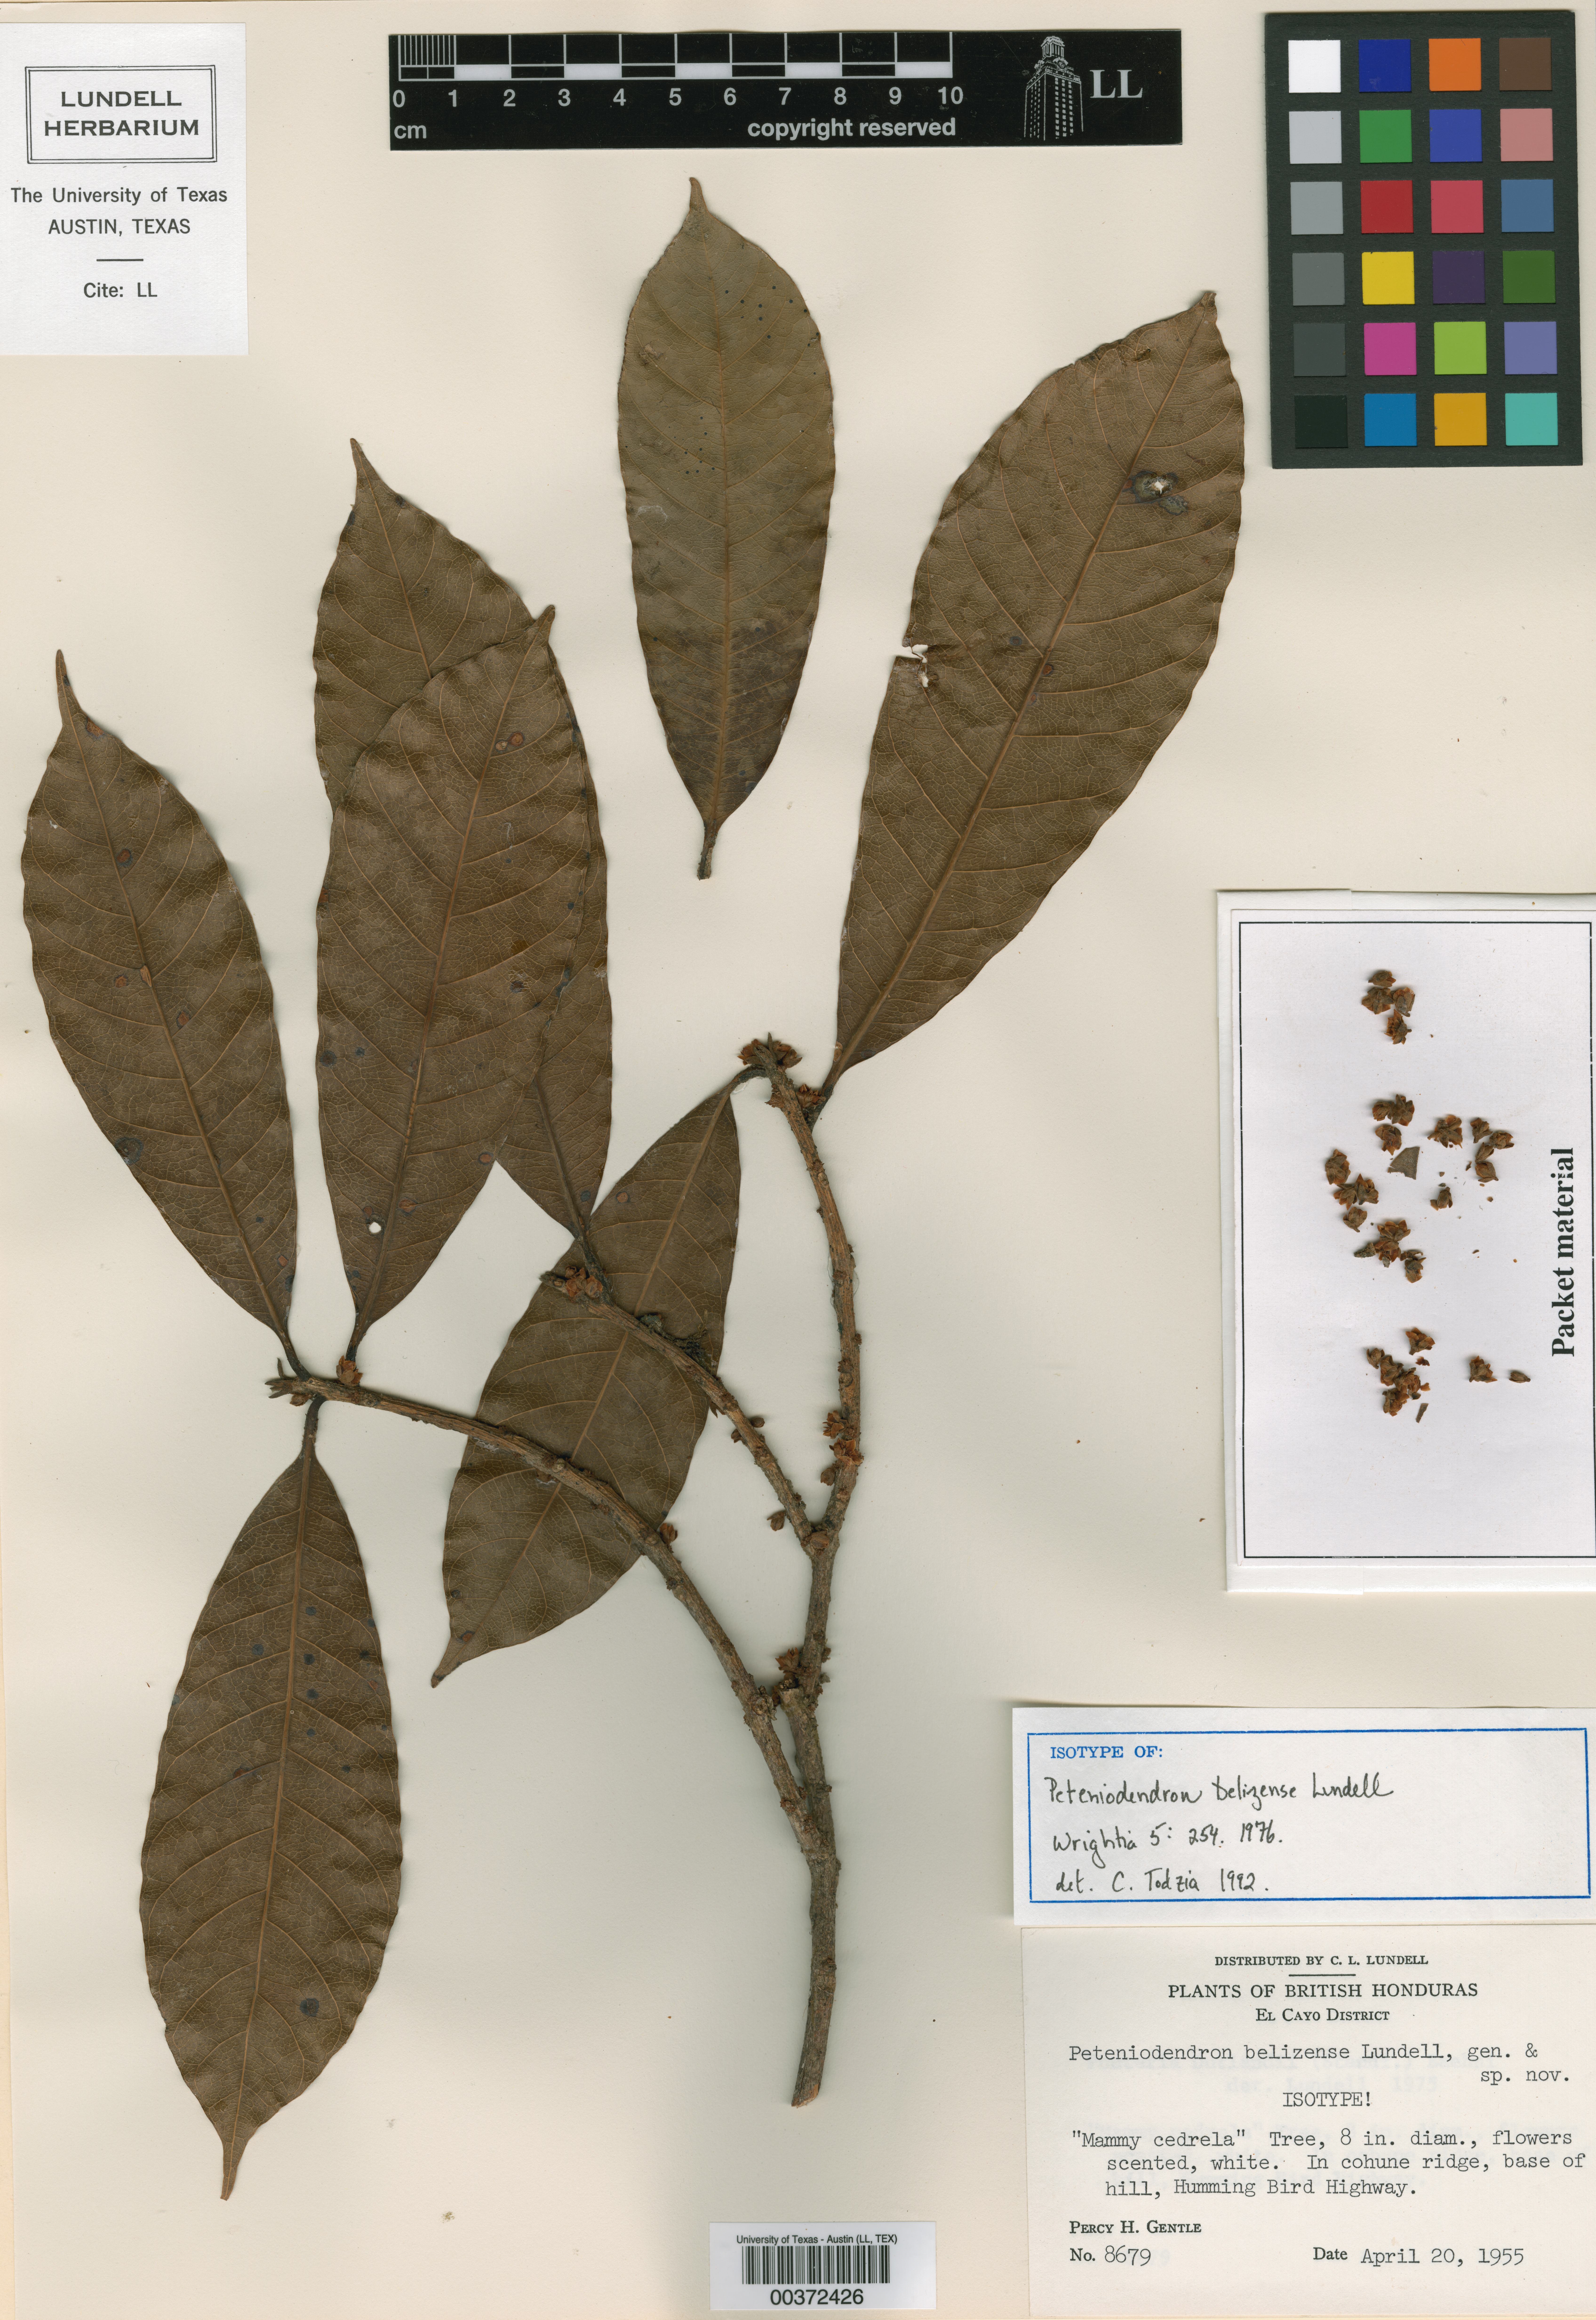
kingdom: Plantae
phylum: Tracheophyta
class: Magnoliopsida
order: Ericales
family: Sapotaceae
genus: Pouteria
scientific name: Pouteria durlandii
